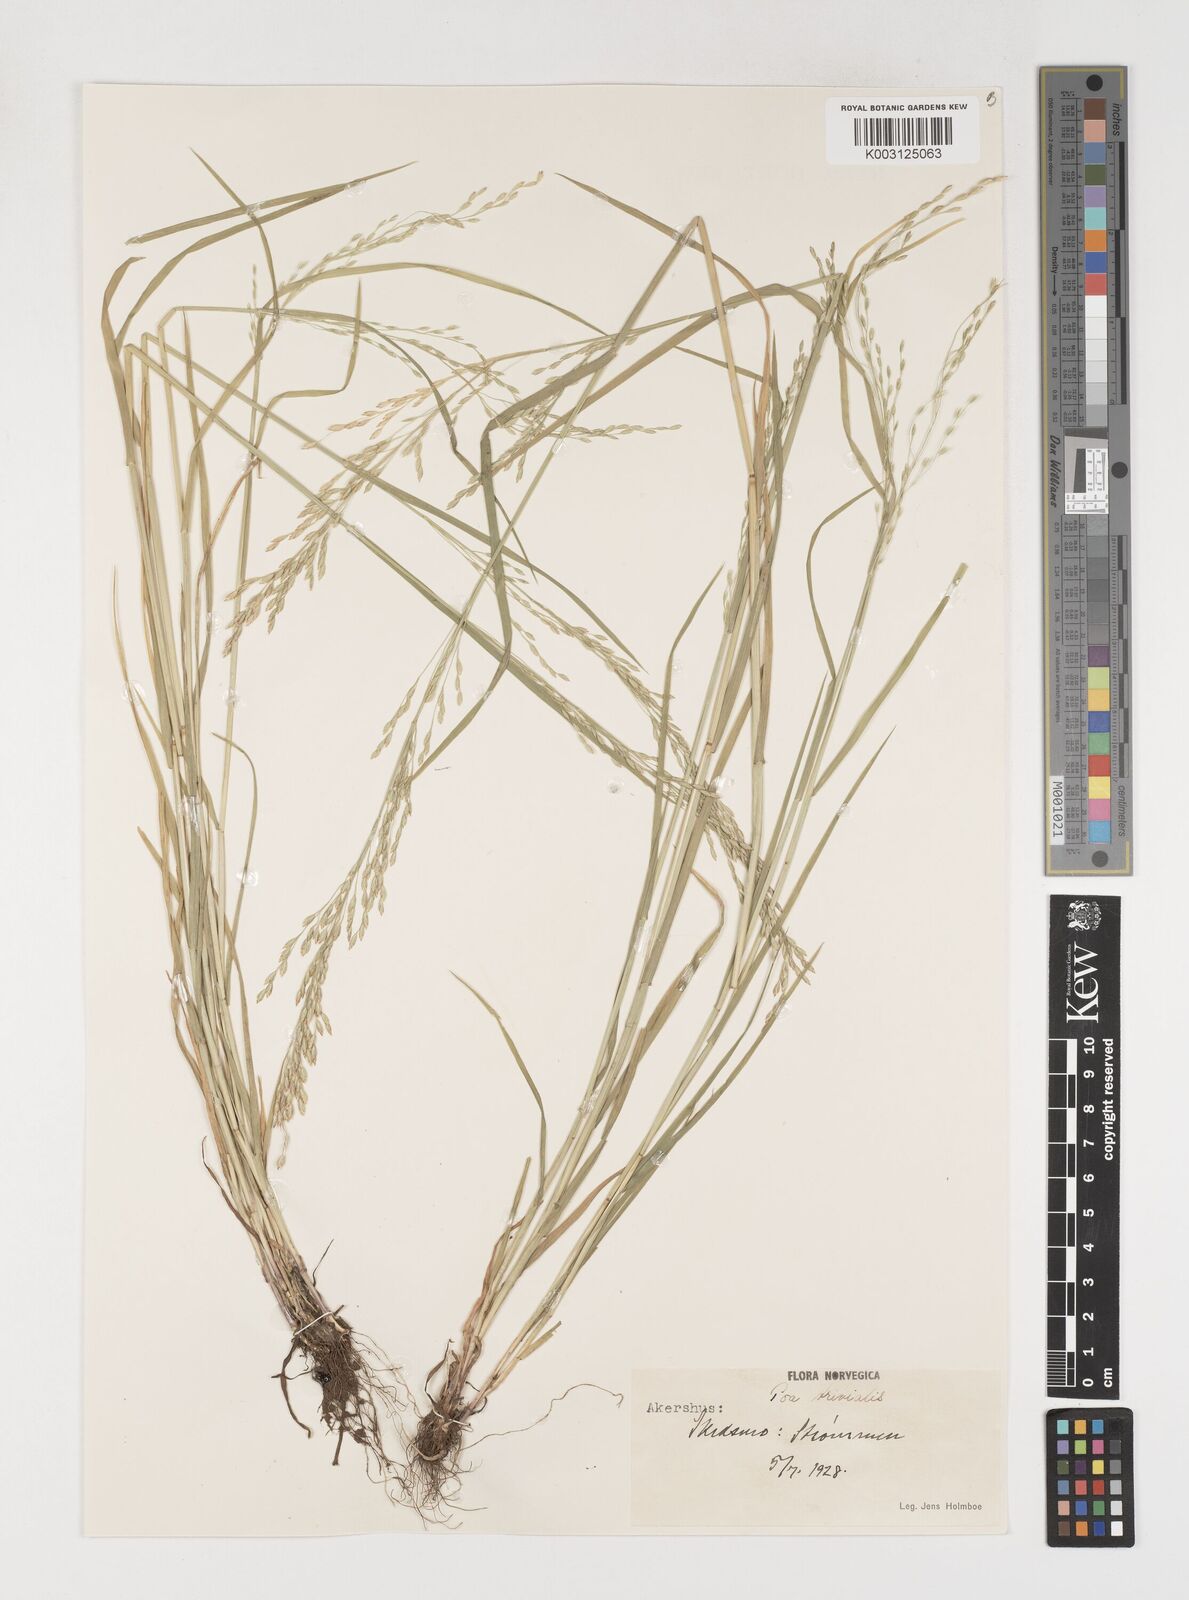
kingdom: Plantae
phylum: Tracheophyta
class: Liliopsida
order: Poales
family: Poaceae
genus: Poa
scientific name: Poa trivialis
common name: Rough bluegrass
